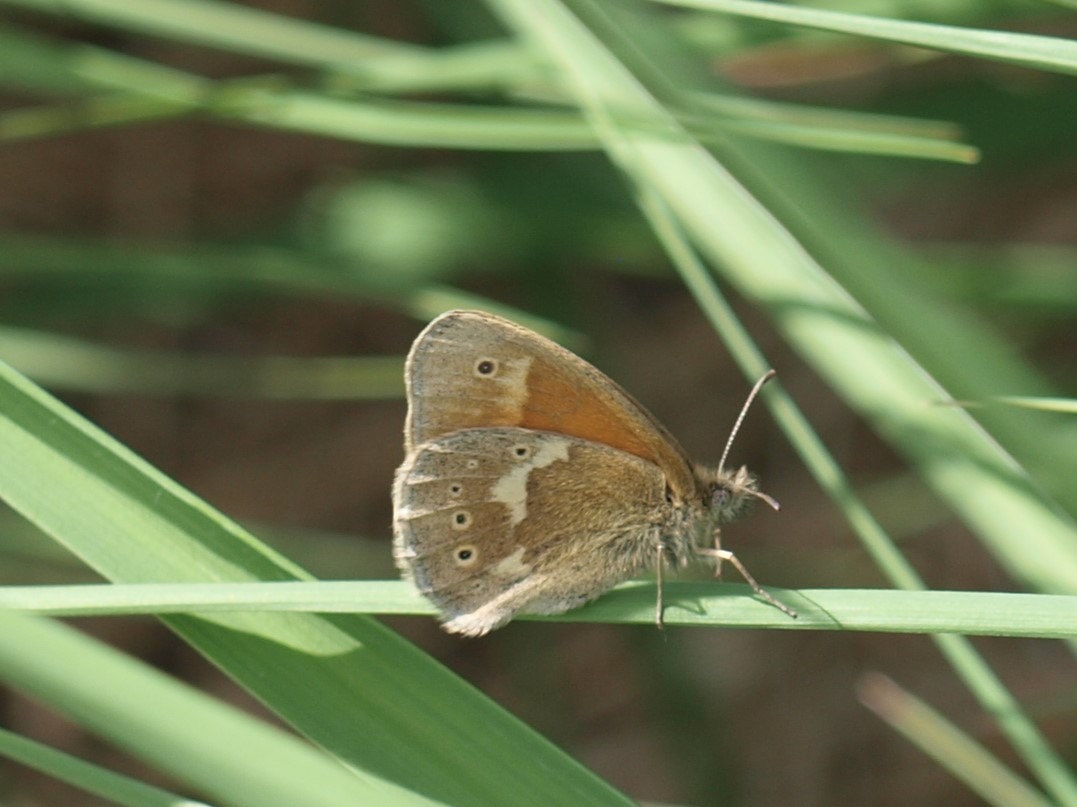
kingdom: Animalia
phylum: Arthropoda
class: Insecta
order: Lepidoptera
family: Nymphalidae
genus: Coenonympha
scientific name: Coenonympha tullia
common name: Moserandøje
